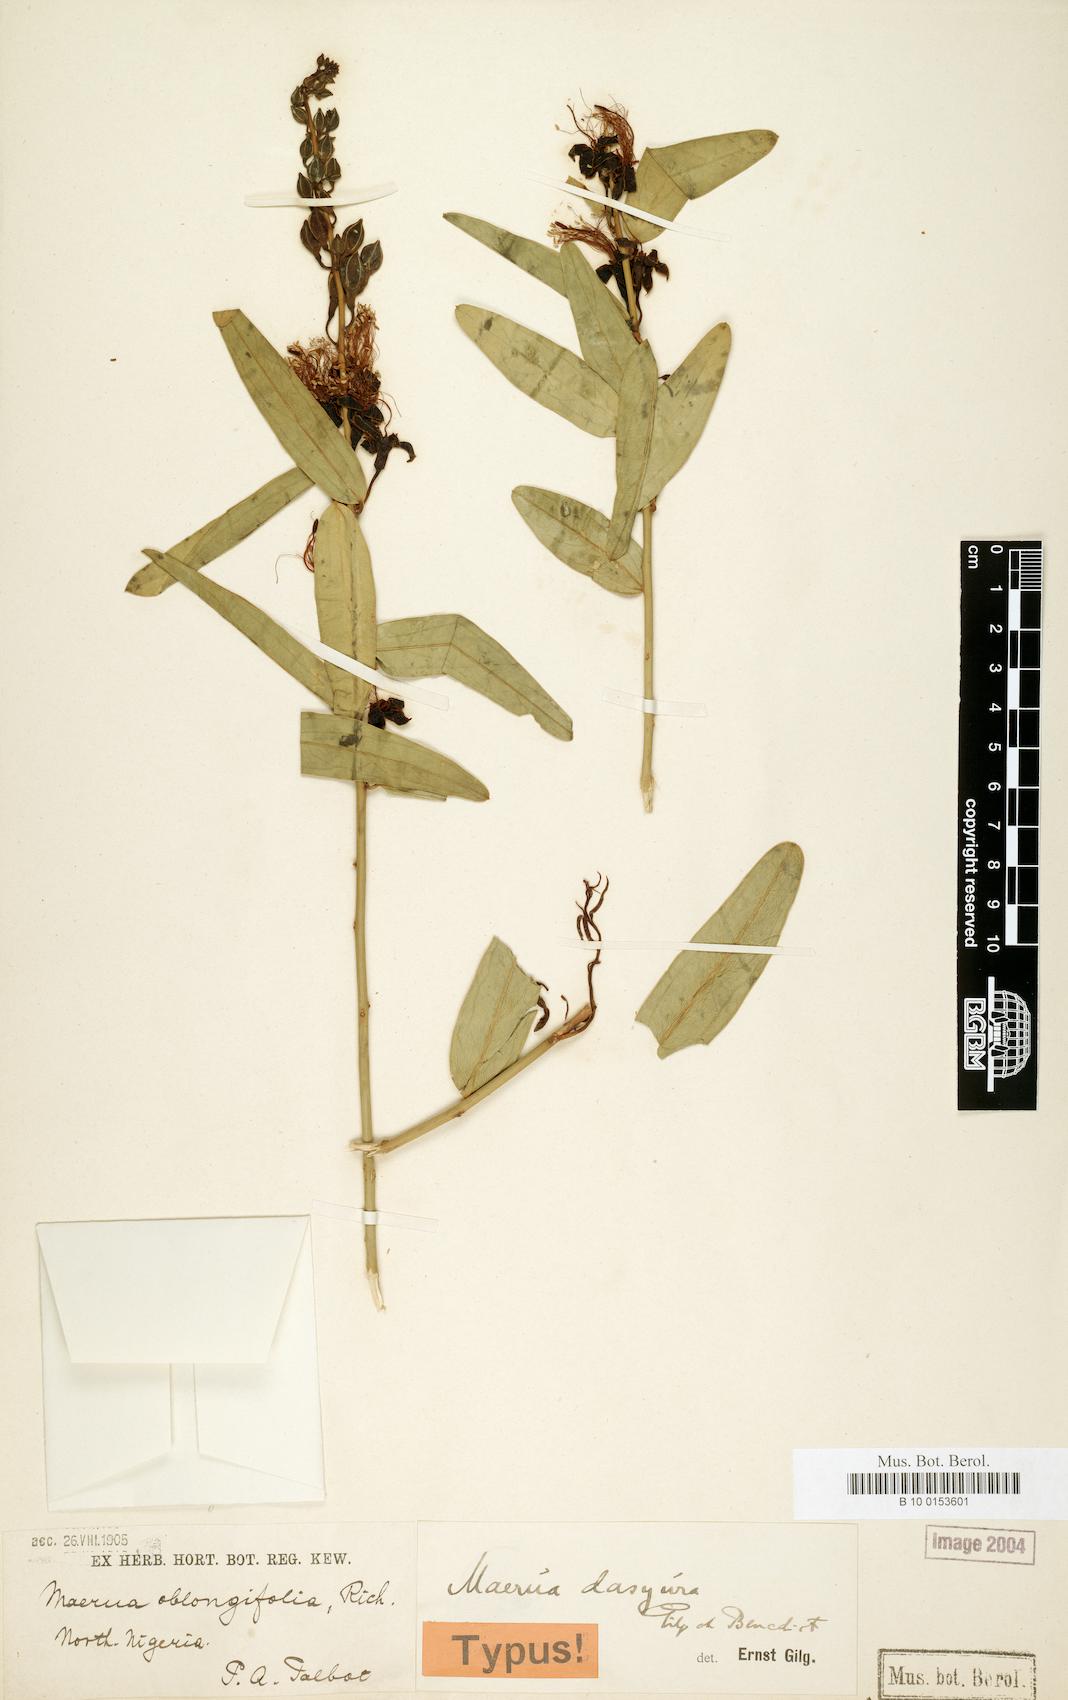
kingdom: Plantae
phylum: Tracheophyta
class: Magnoliopsida
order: Brassicales
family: Capparaceae
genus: Maerua
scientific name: Maerua oblongifolia
